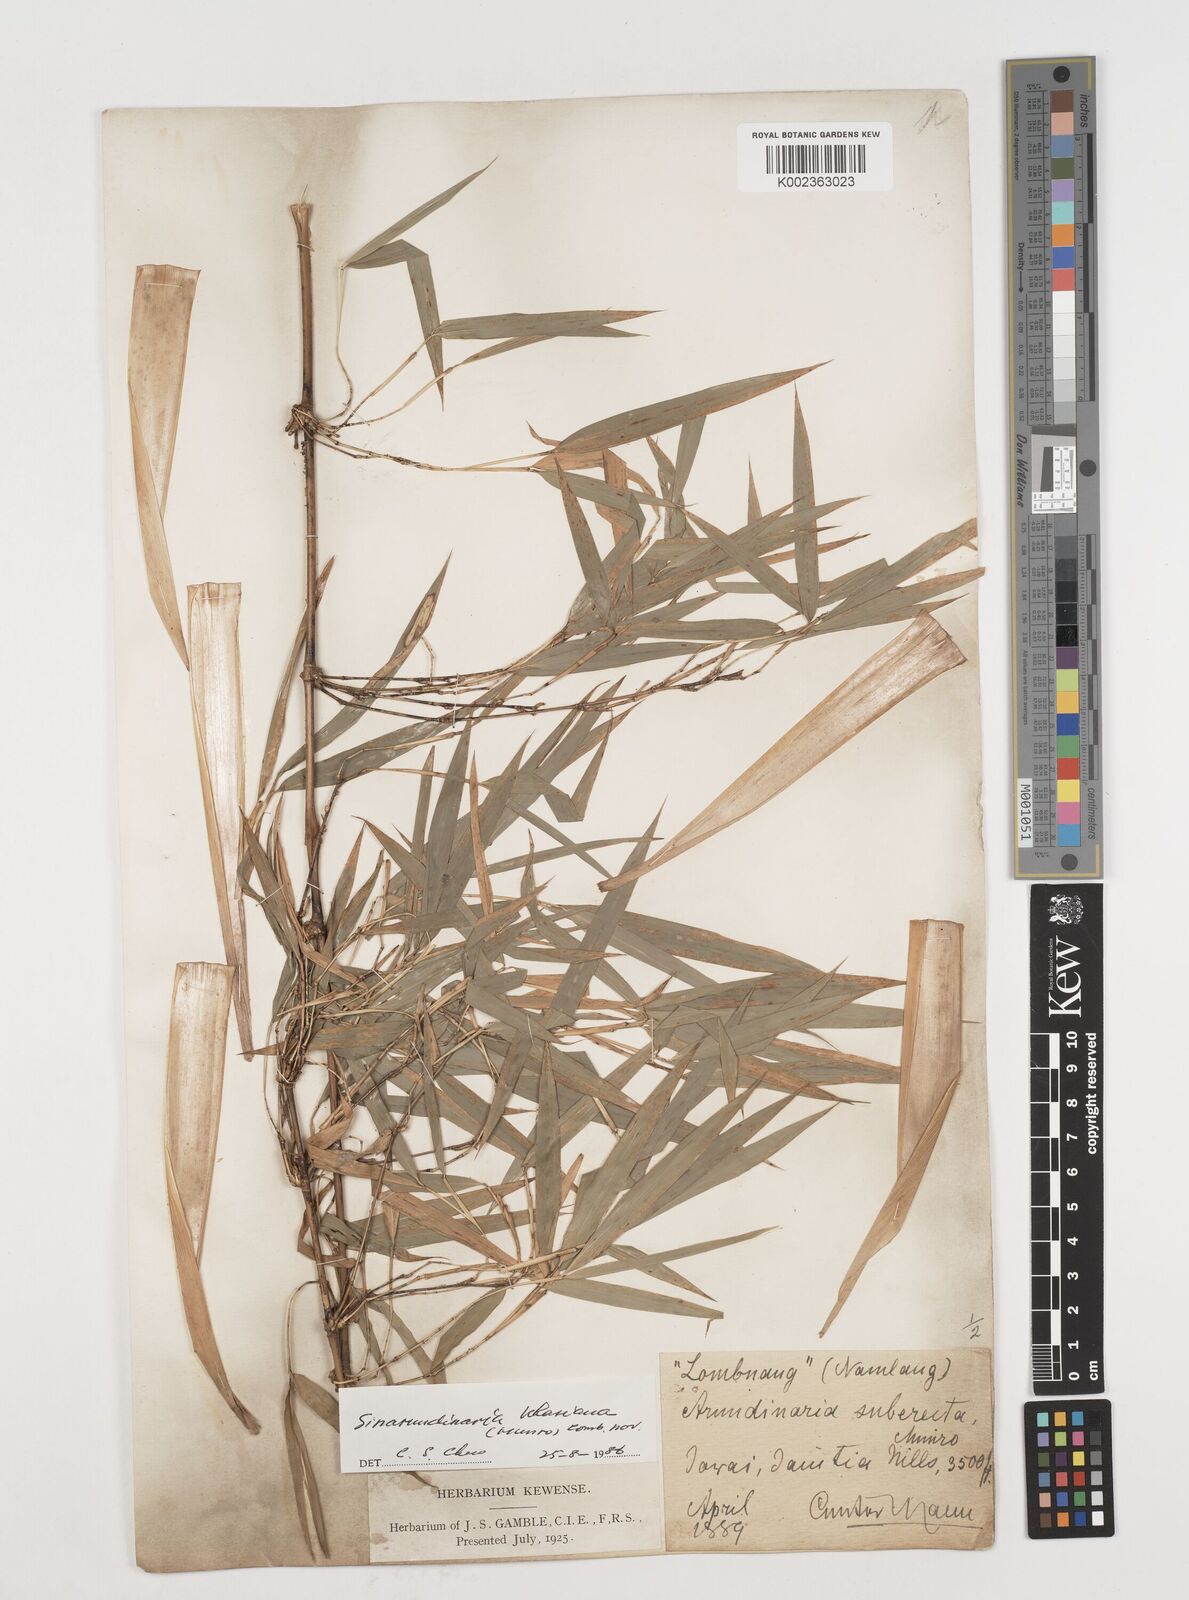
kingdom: Plantae
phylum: Tracheophyta
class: Liliopsida
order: Poales
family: Poaceae
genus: Drepanostachyum
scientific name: Drepanostachyum khasianum
